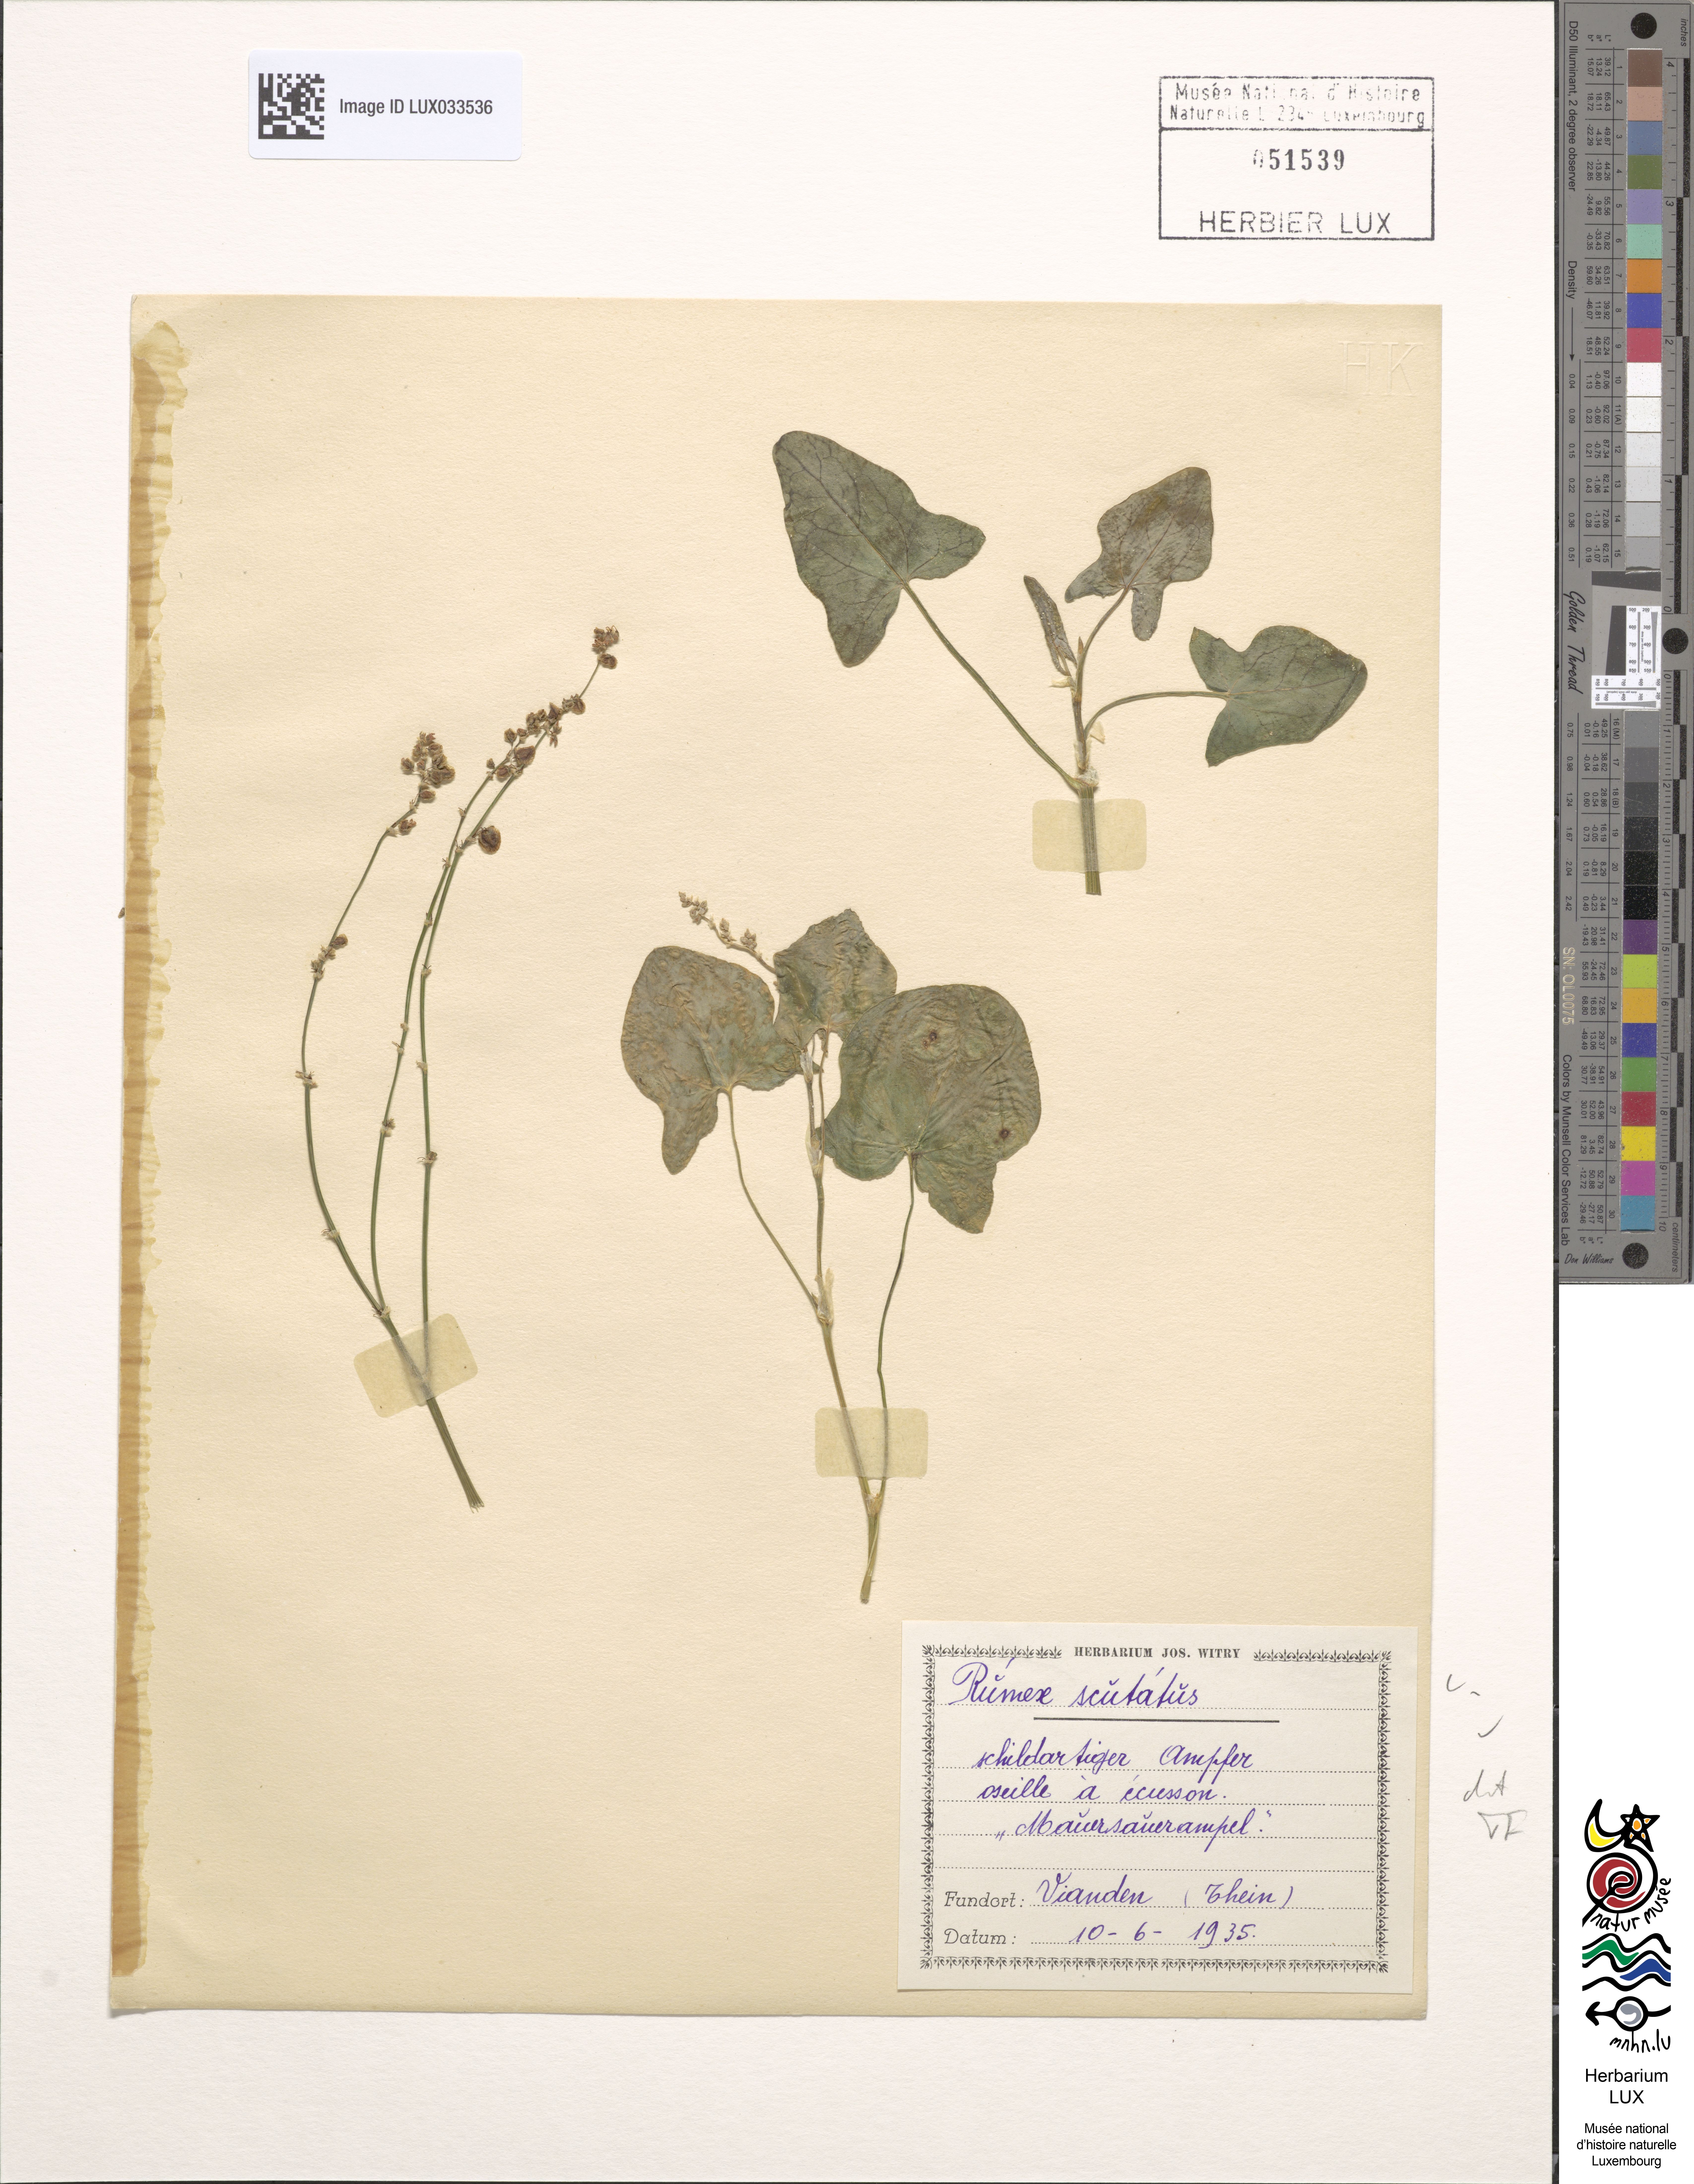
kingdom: Plantae
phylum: Tracheophyta
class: Magnoliopsida
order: Caryophyllales
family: Polygonaceae
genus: Rumex
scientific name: Rumex scutatus
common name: French sorrel
